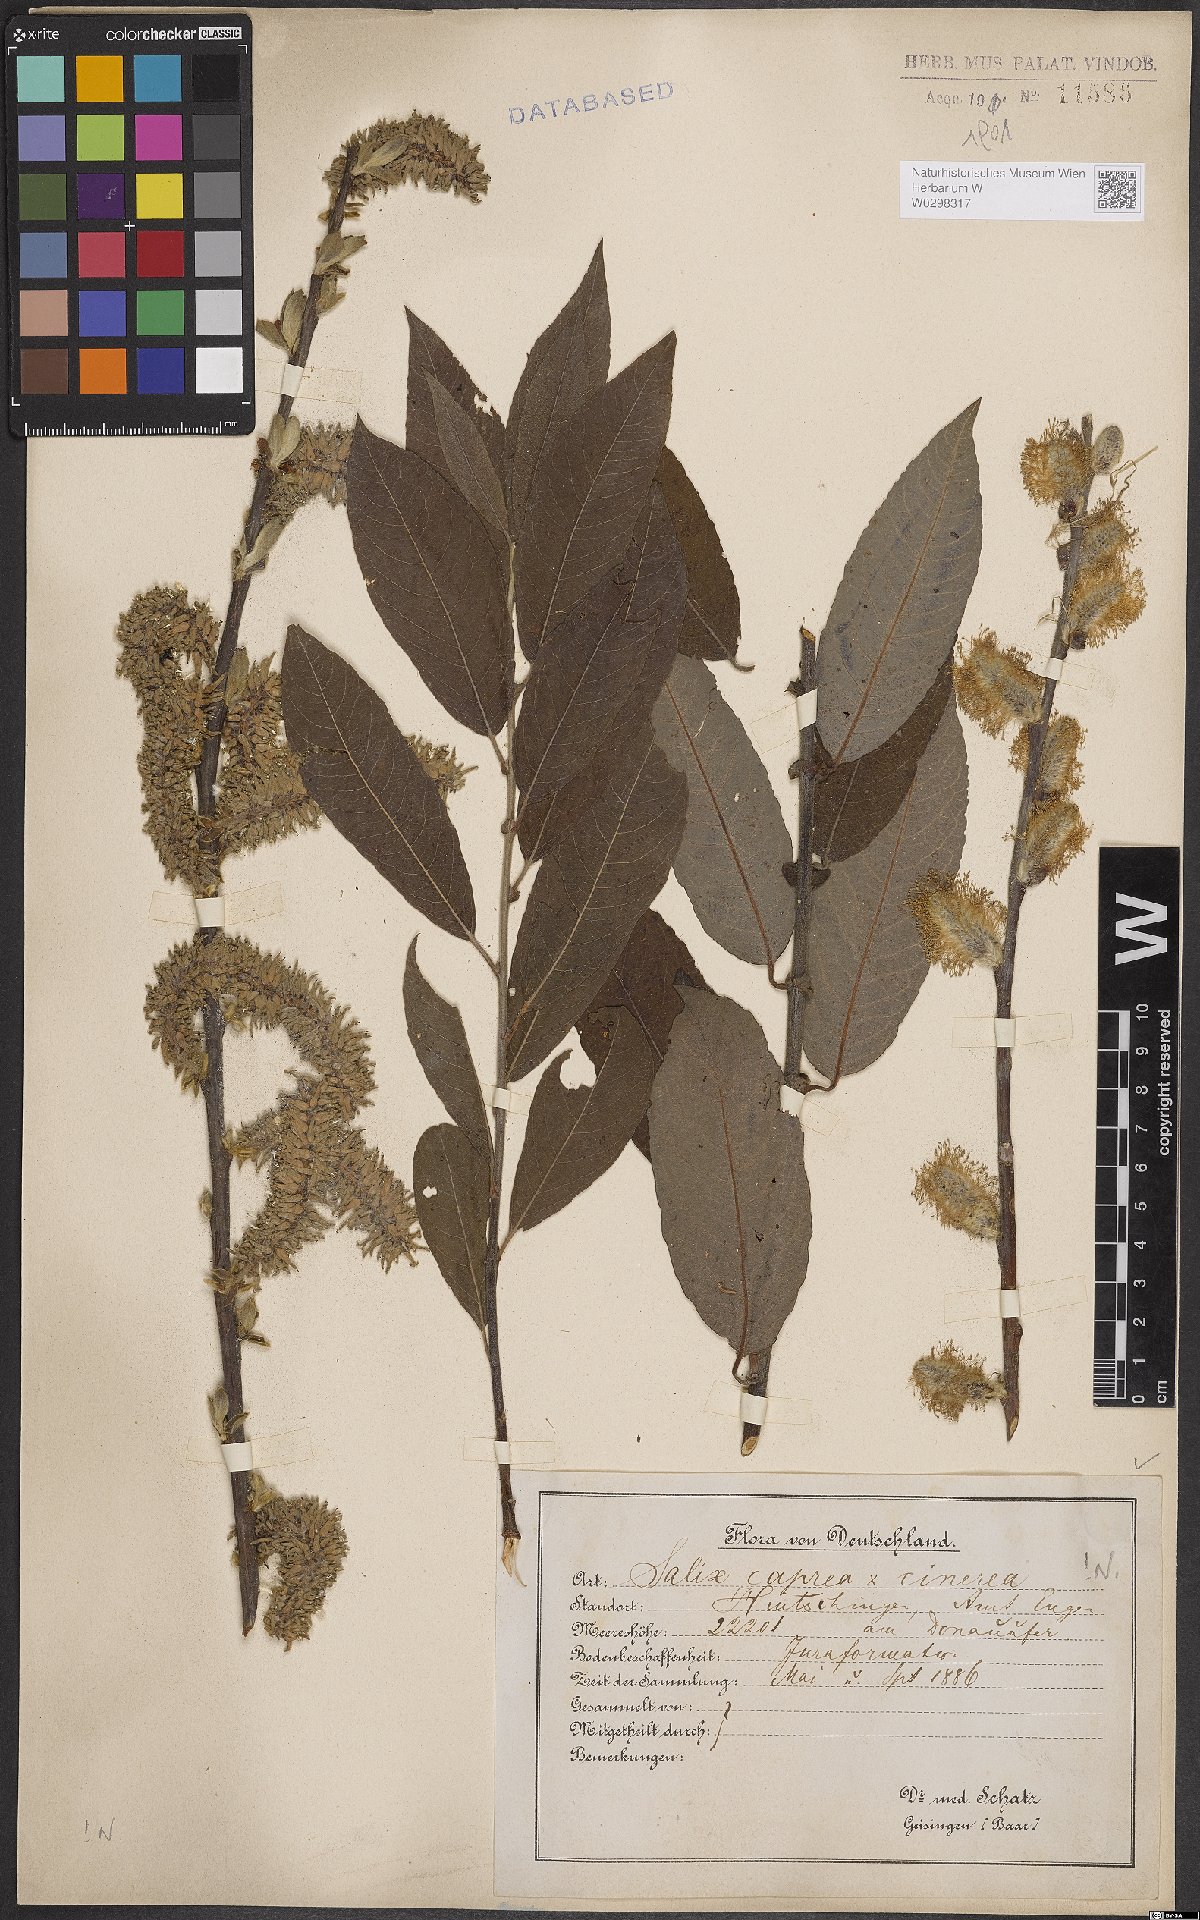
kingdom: Plantae
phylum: Tracheophyta
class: Magnoliopsida
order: Malpighiales
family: Salicaceae
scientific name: Salicaceae
